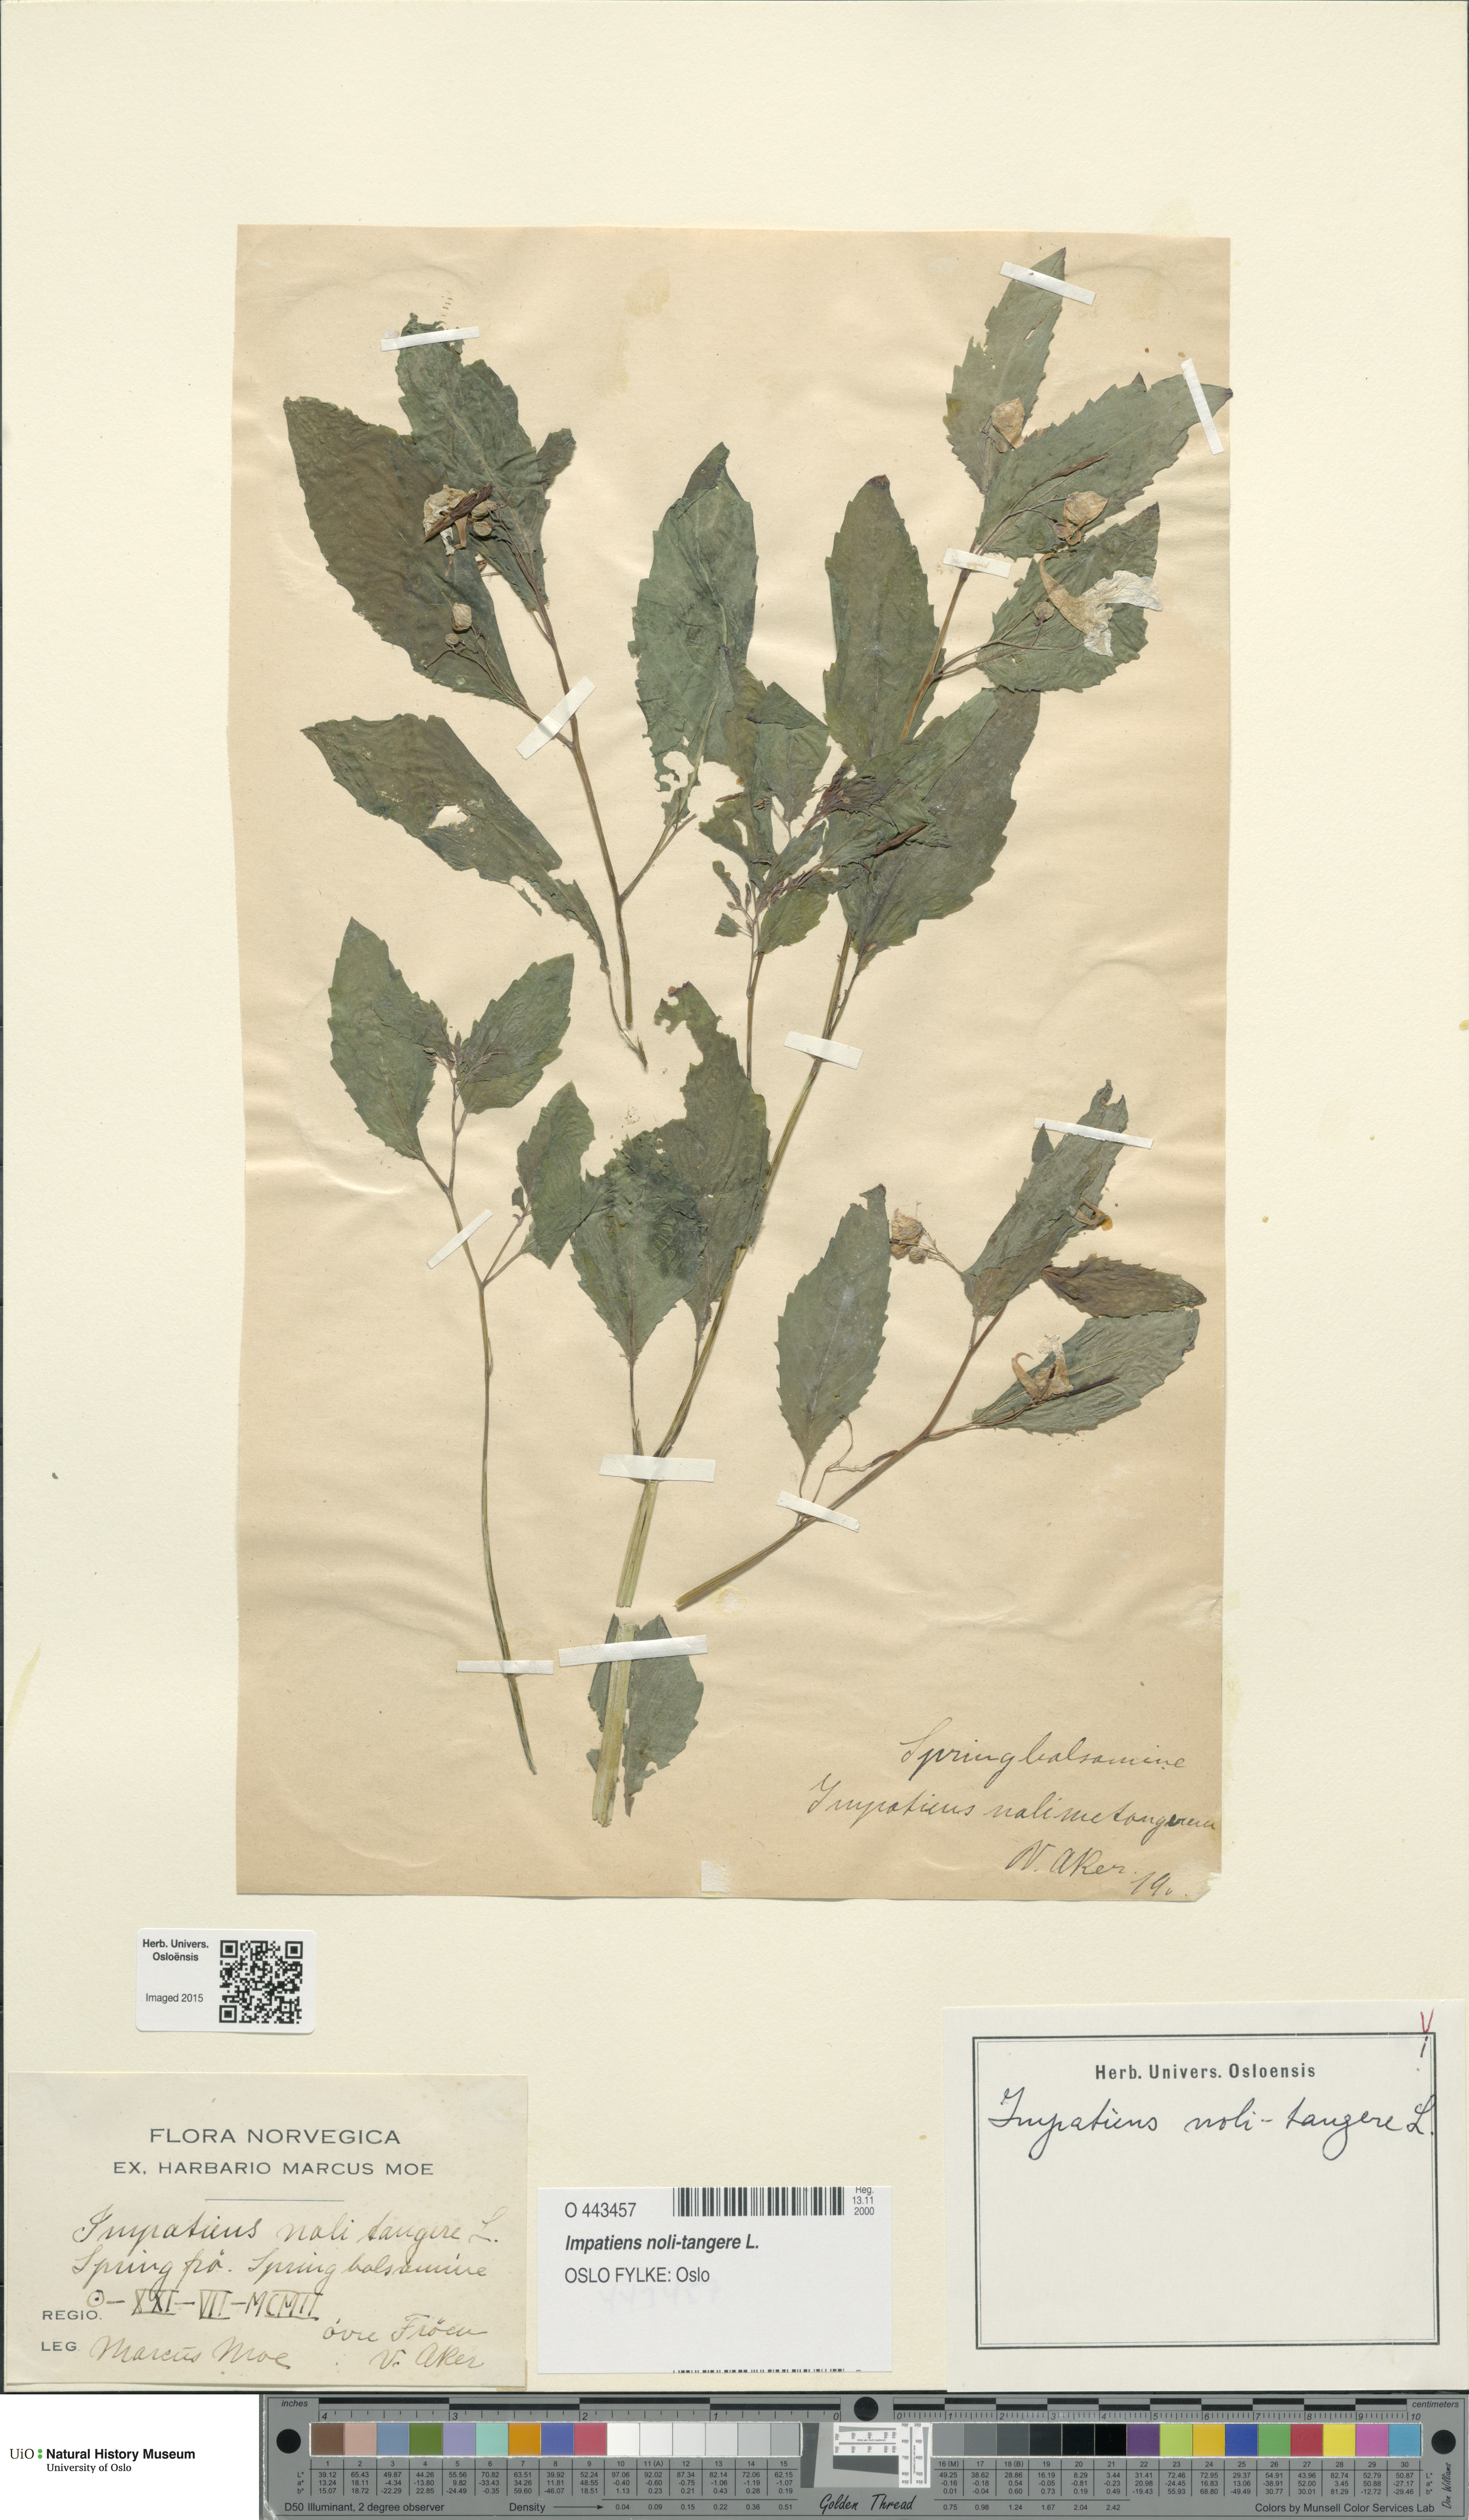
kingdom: Plantae
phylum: Tracheophyta
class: Magnoliopsida
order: Ericales
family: Balsaminaceae
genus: Impatiens
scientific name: Impatiens noli-tangere
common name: Touch-me-not balsam
